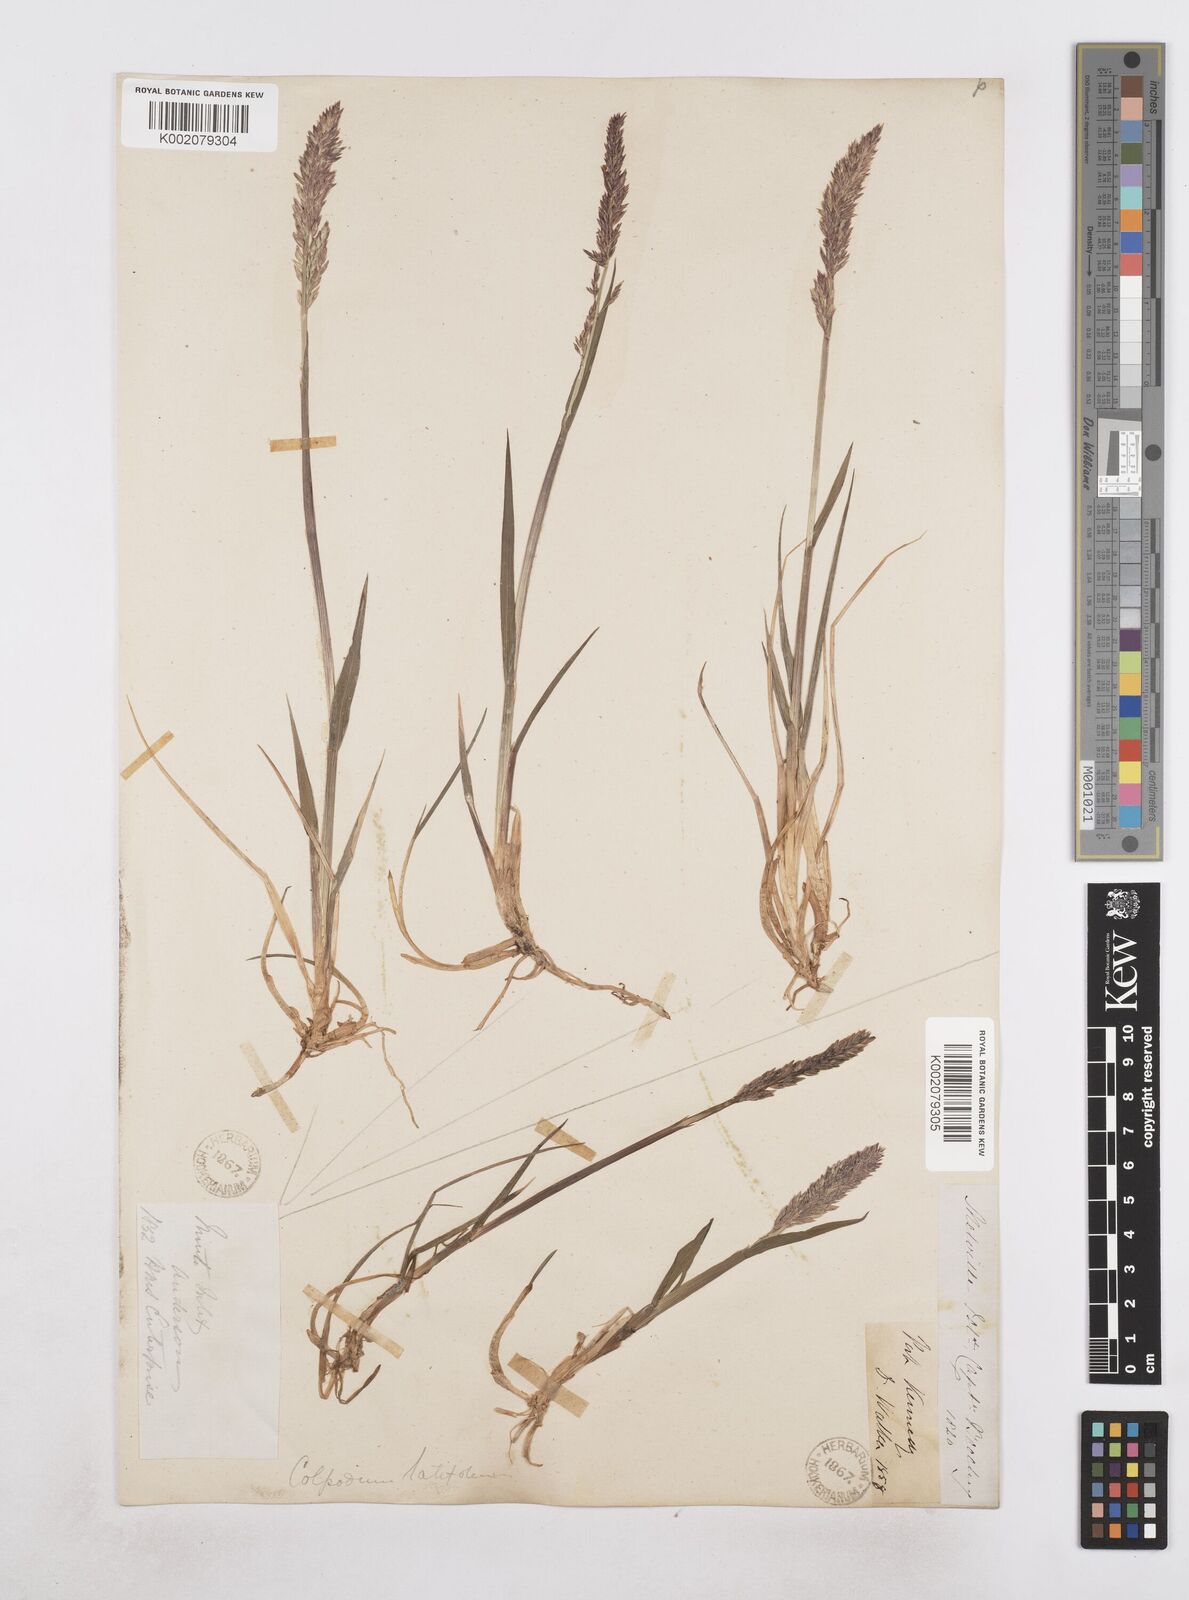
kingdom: Plantae
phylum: Tracheophyta
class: Liliopsida
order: Poales
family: Poaceae
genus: Arctagrostis
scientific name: Arctagrostis latifolia
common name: Arctic grass
